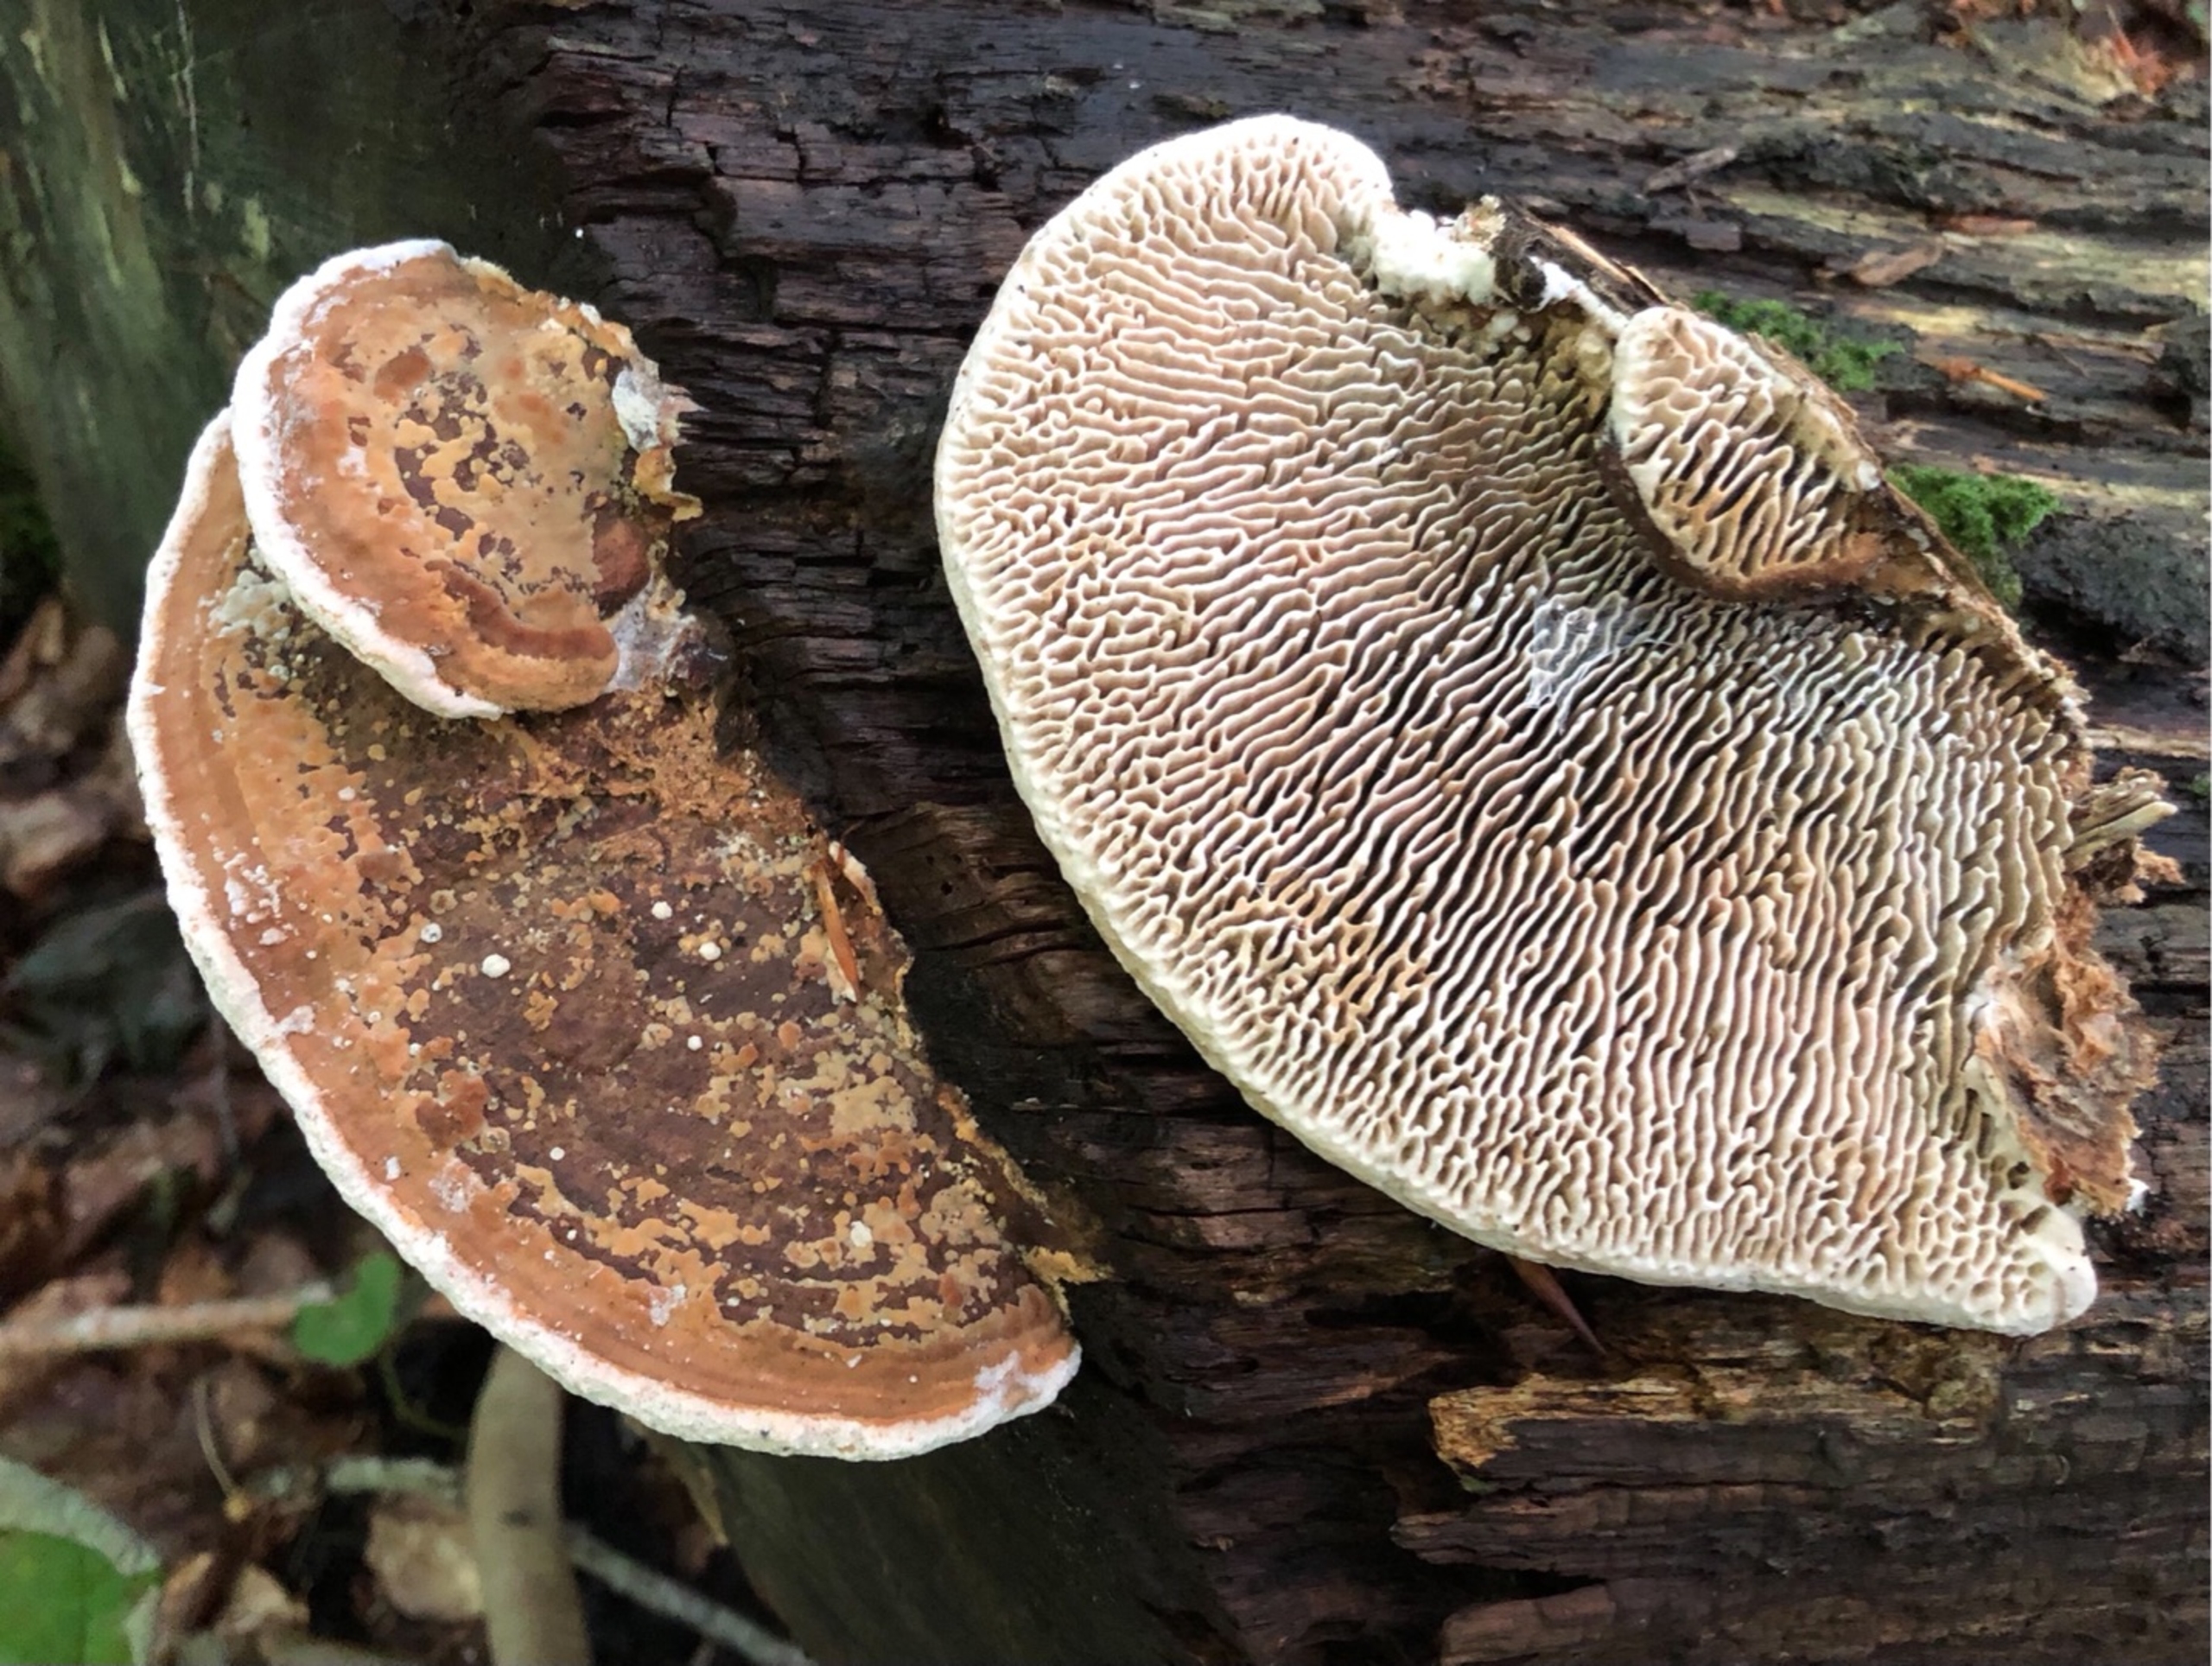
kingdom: Fungi
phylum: Basidiomycota
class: Agaricomycetes
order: Polyporales
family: Fomitopsidaceae
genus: Daedalea
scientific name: Daedalea quercina
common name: Ege-labyrintsvamp
